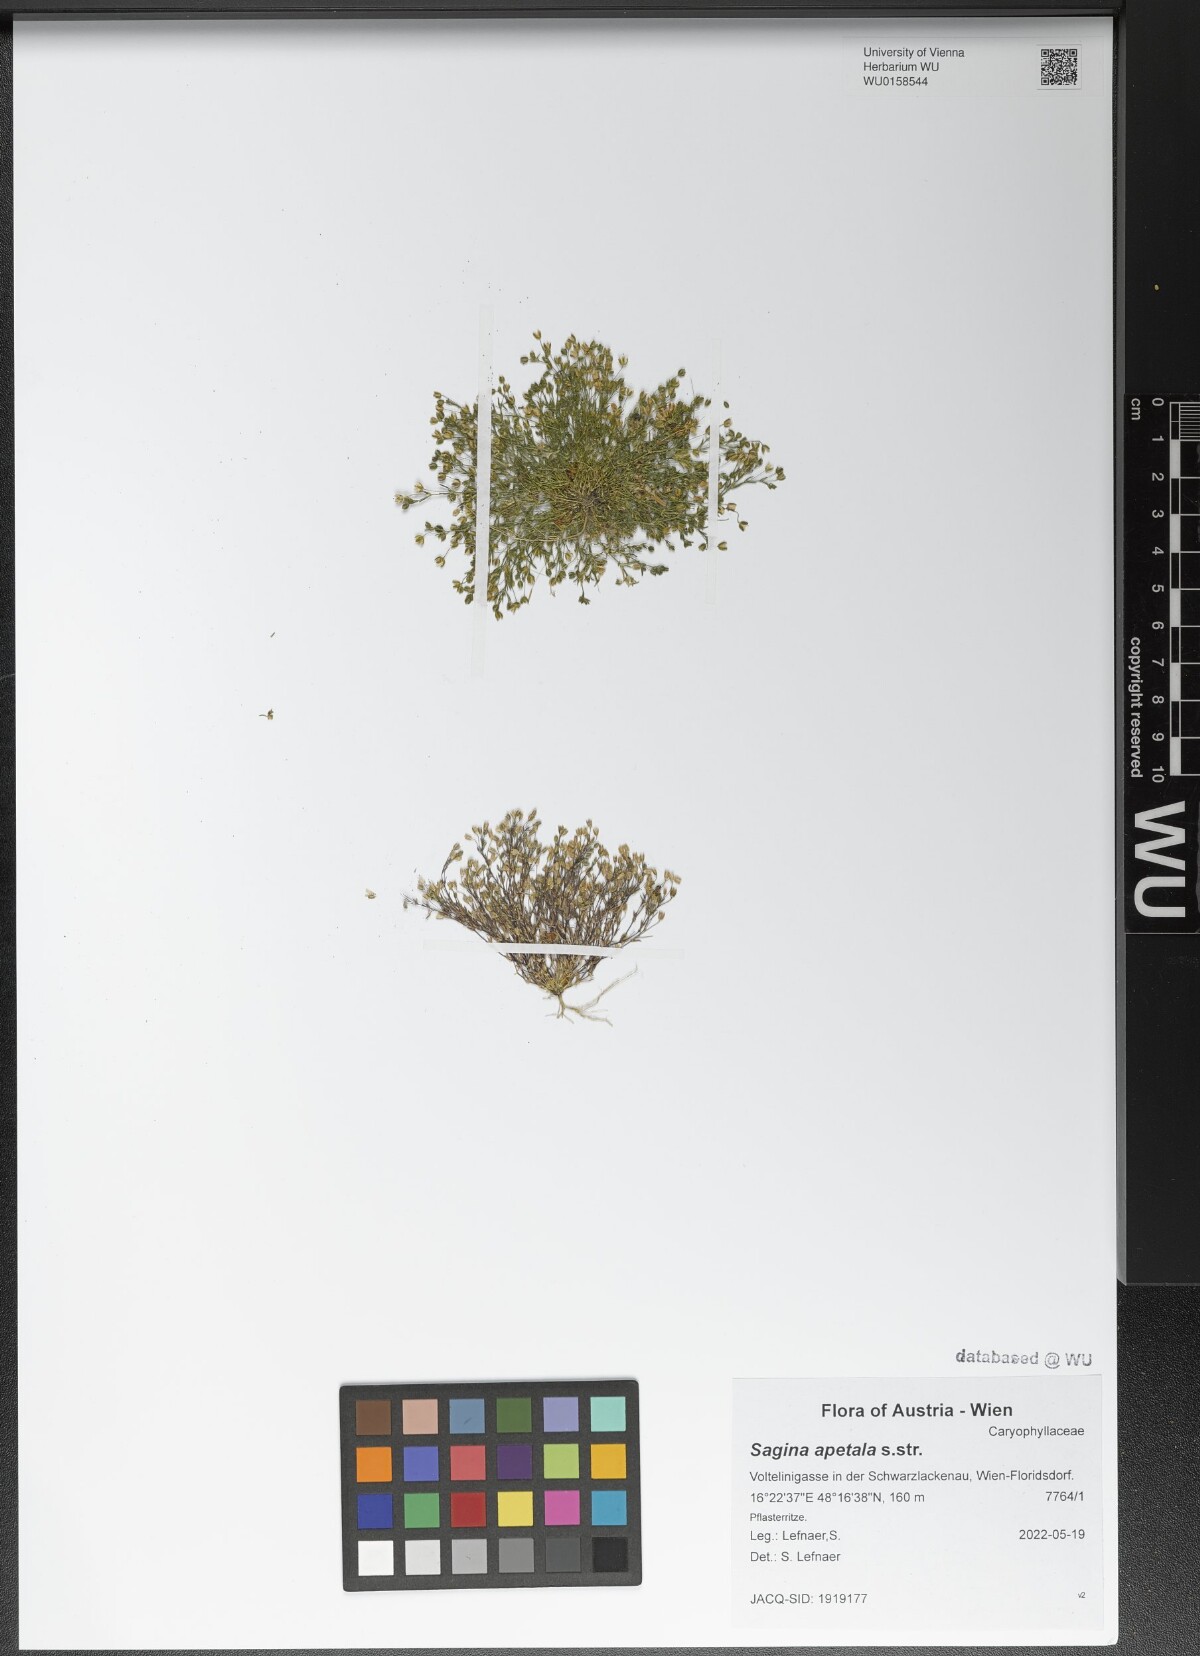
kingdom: Plantae
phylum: Tracheophyta
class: Magnoliopsida
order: Caryophyllales
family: Caryophyllaceae
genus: Sagina
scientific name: Sagina apetala
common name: Annual pearlwort
